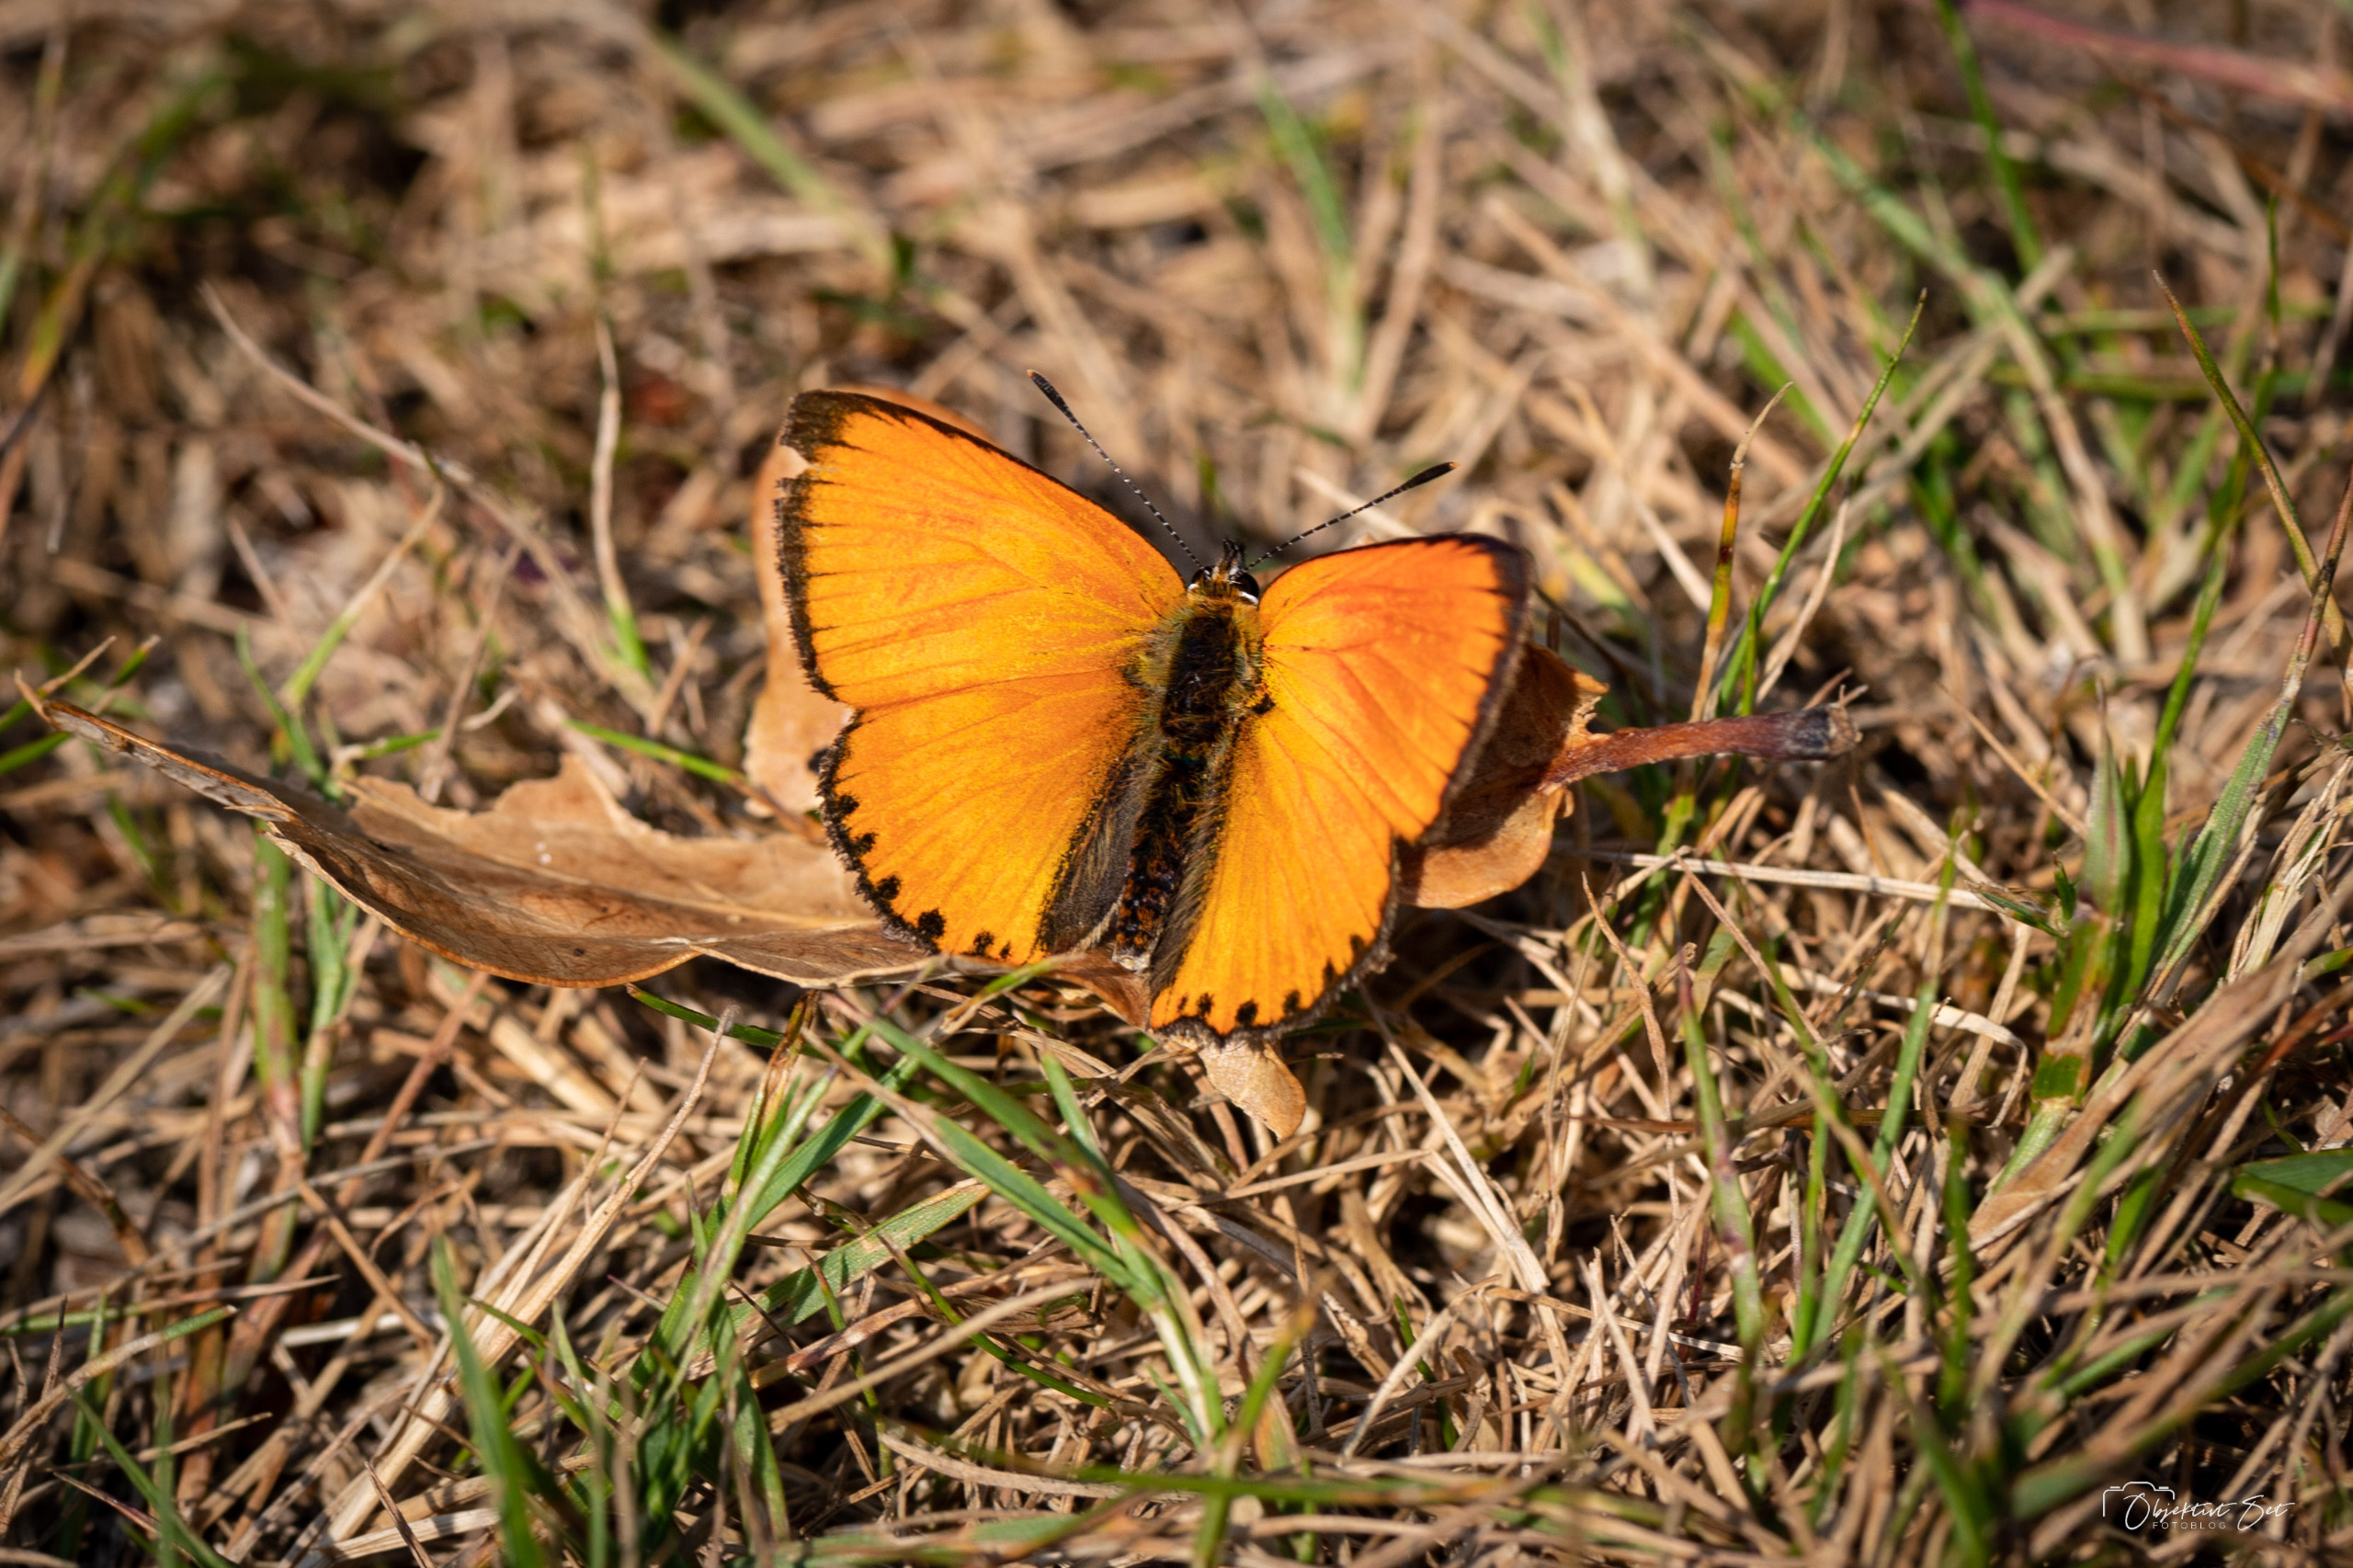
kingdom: Animalia
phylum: Arthropoda
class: Insecta
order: Lepidoptera
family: Lycaenidae
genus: Lycaena
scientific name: Lycaena virgaureae
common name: Dukatsommerfugl
